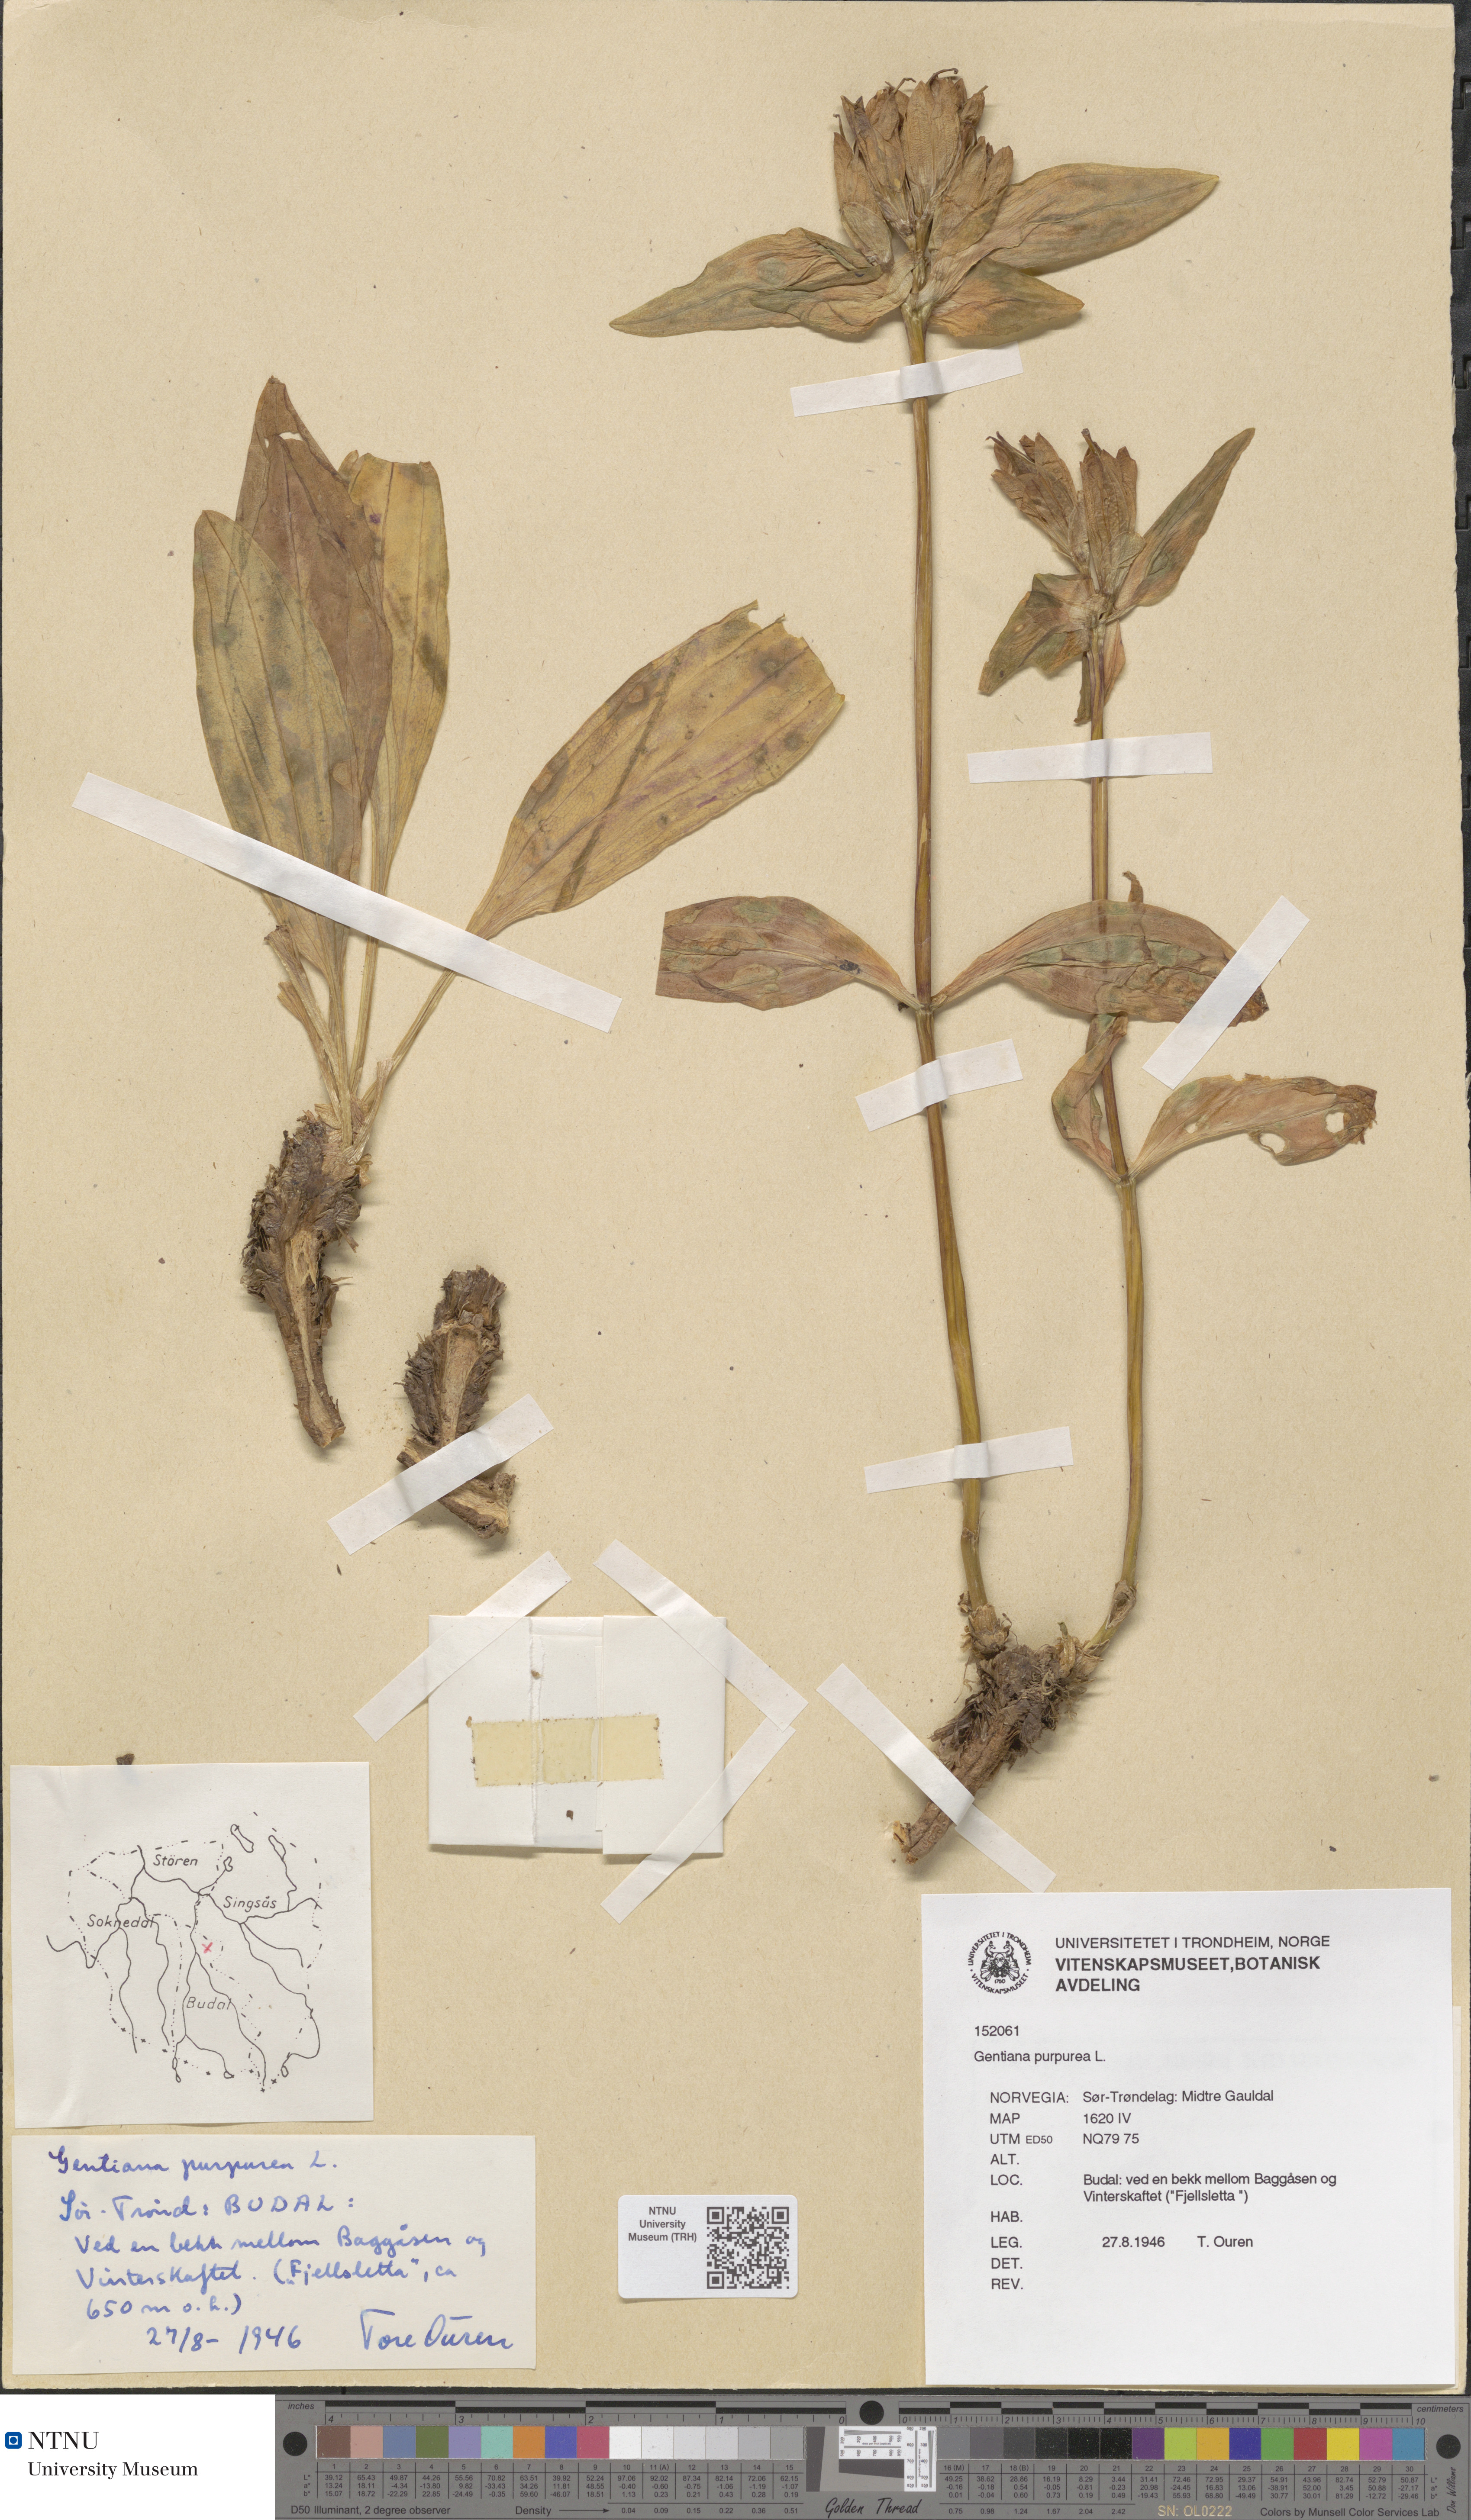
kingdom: Plantae
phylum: Tracheophyta
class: Magnoliopsida
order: Gentianales
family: Gentianaceae
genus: Gentiana
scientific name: Gentiana purpurea
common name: Purple gentian
